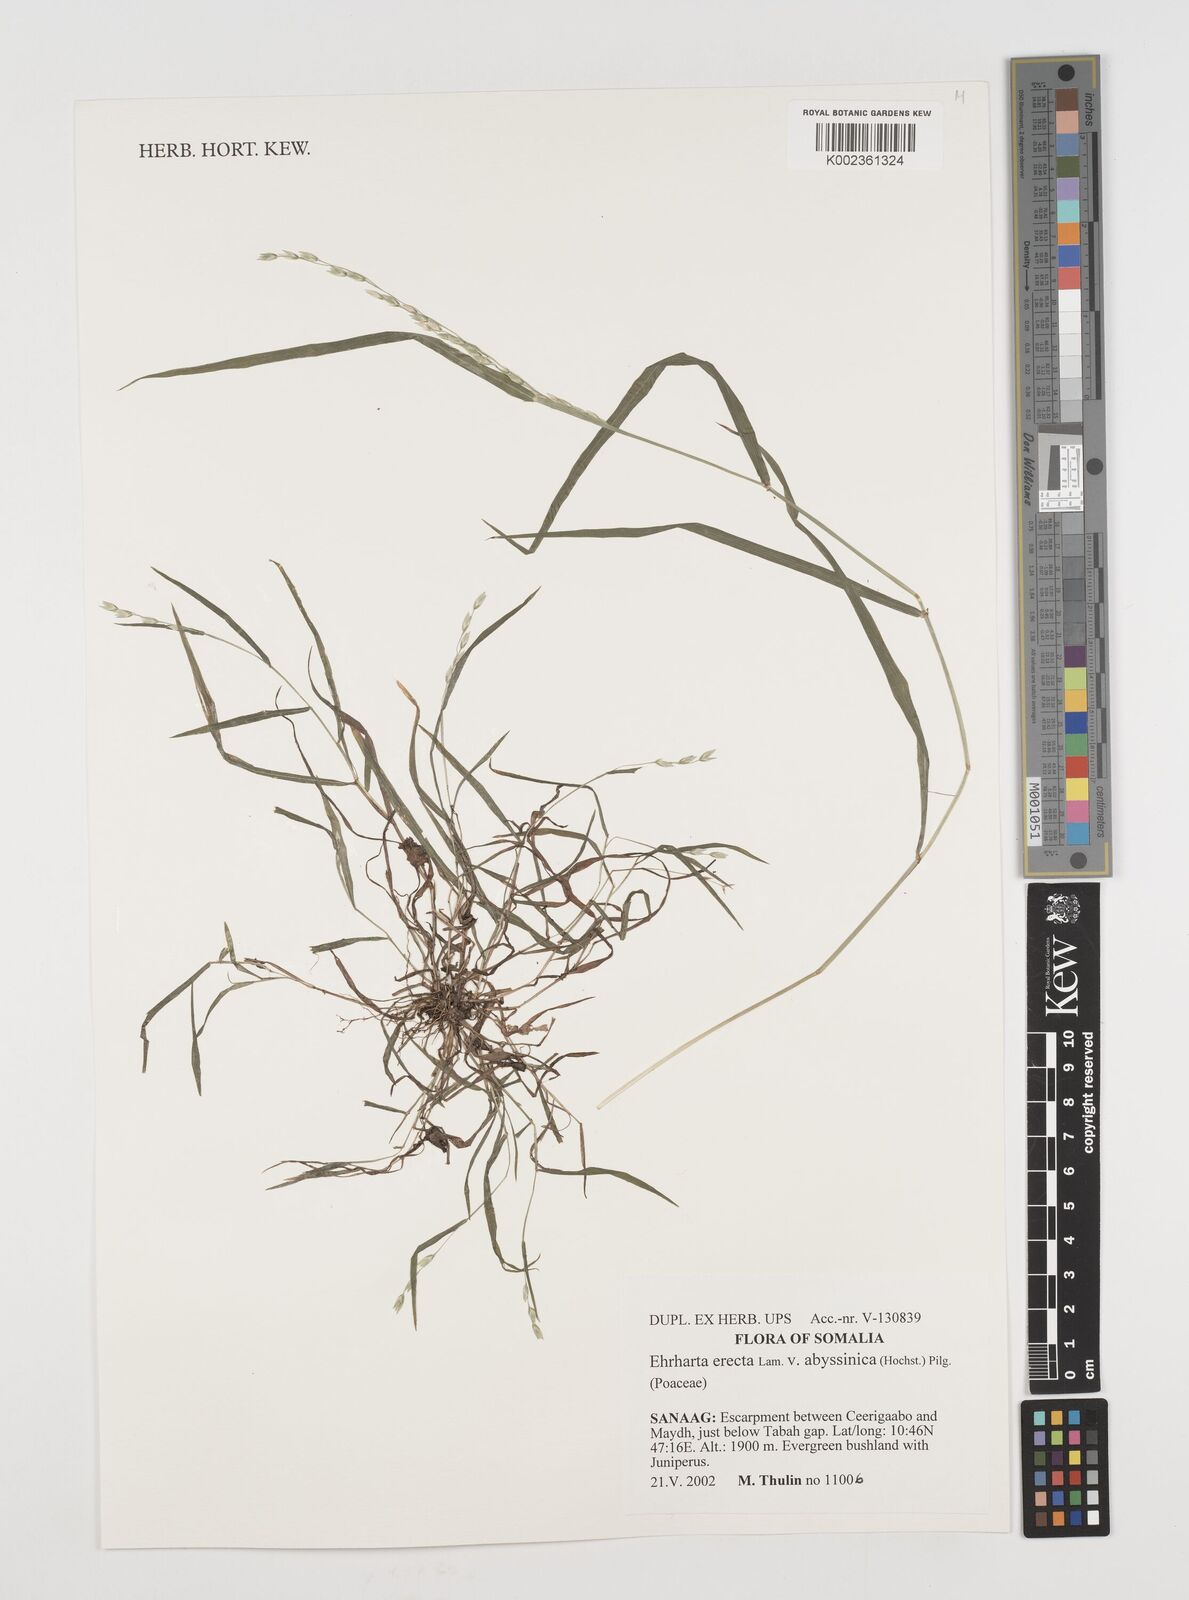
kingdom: Plantae
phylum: Tracheophyta
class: Liliopsida
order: Poales
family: Poaceae
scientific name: Poaceae
